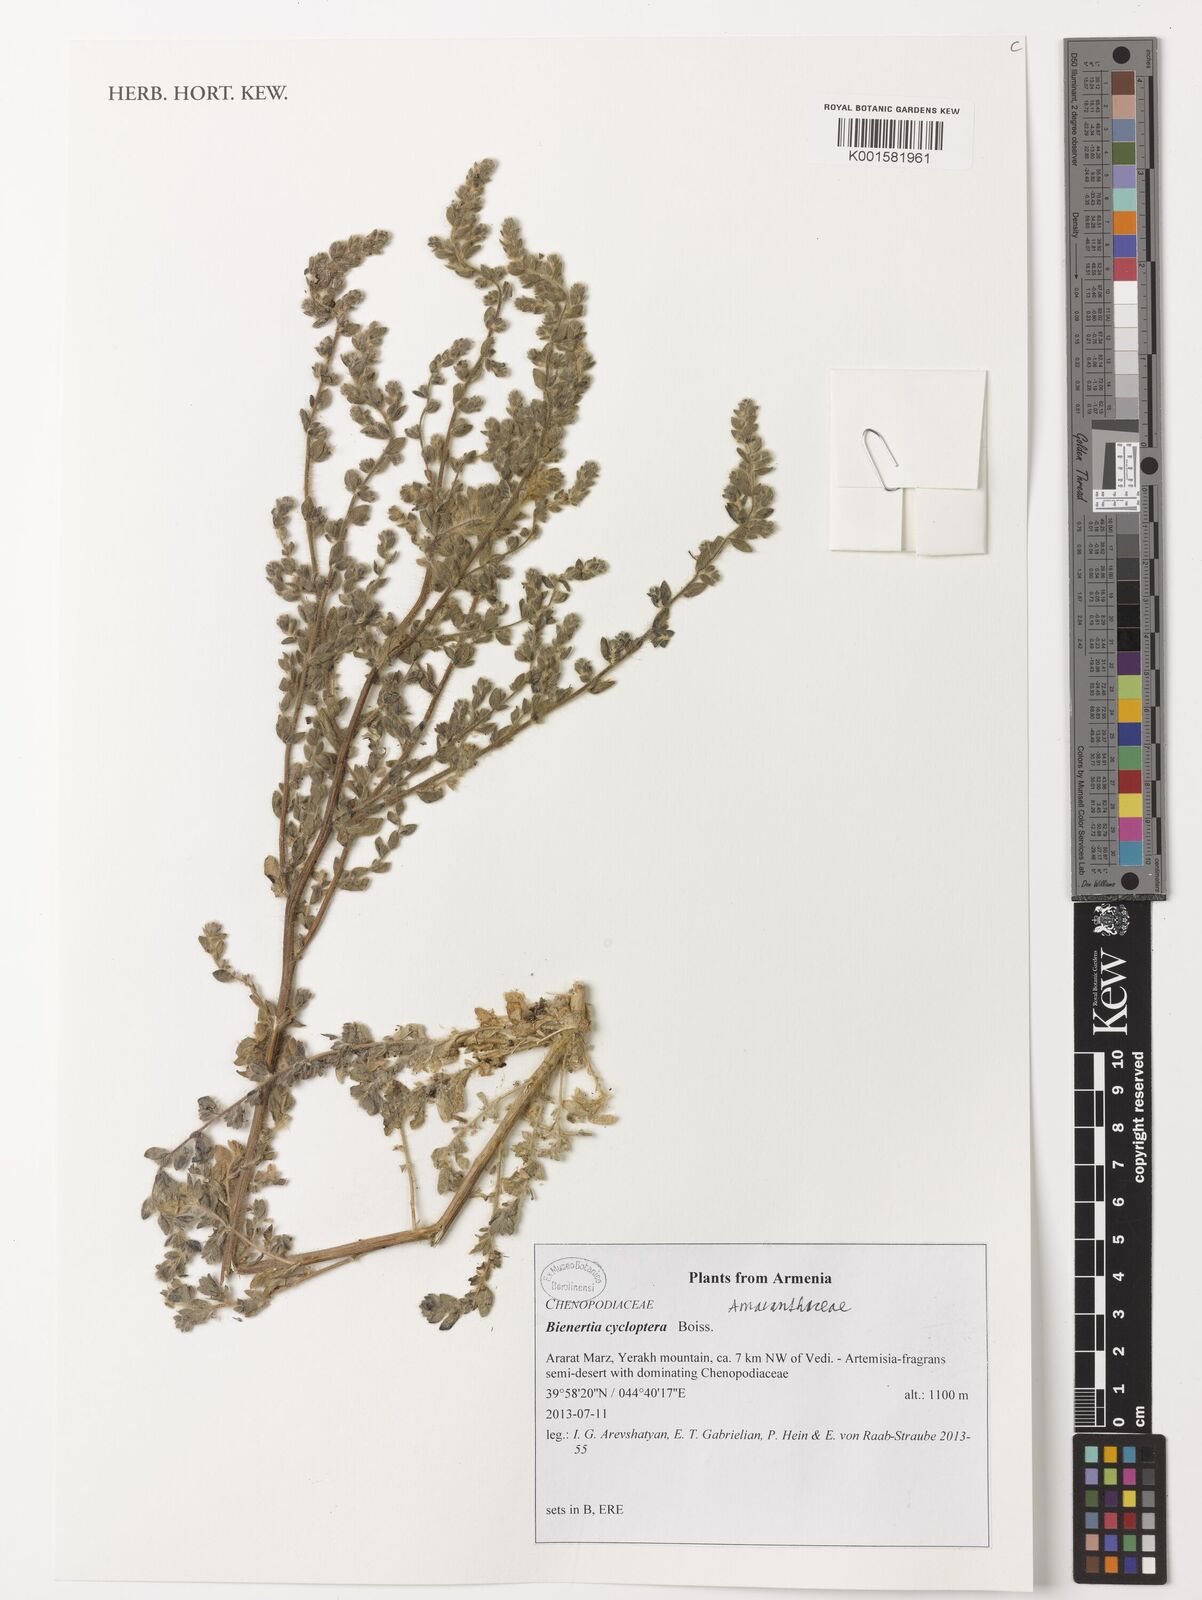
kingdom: Plantae
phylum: Tracheophyta
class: Magnoliopsida
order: Caryophyllales
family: Amaranthaceae
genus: Bienertia
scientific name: Bienertia cycloptera
